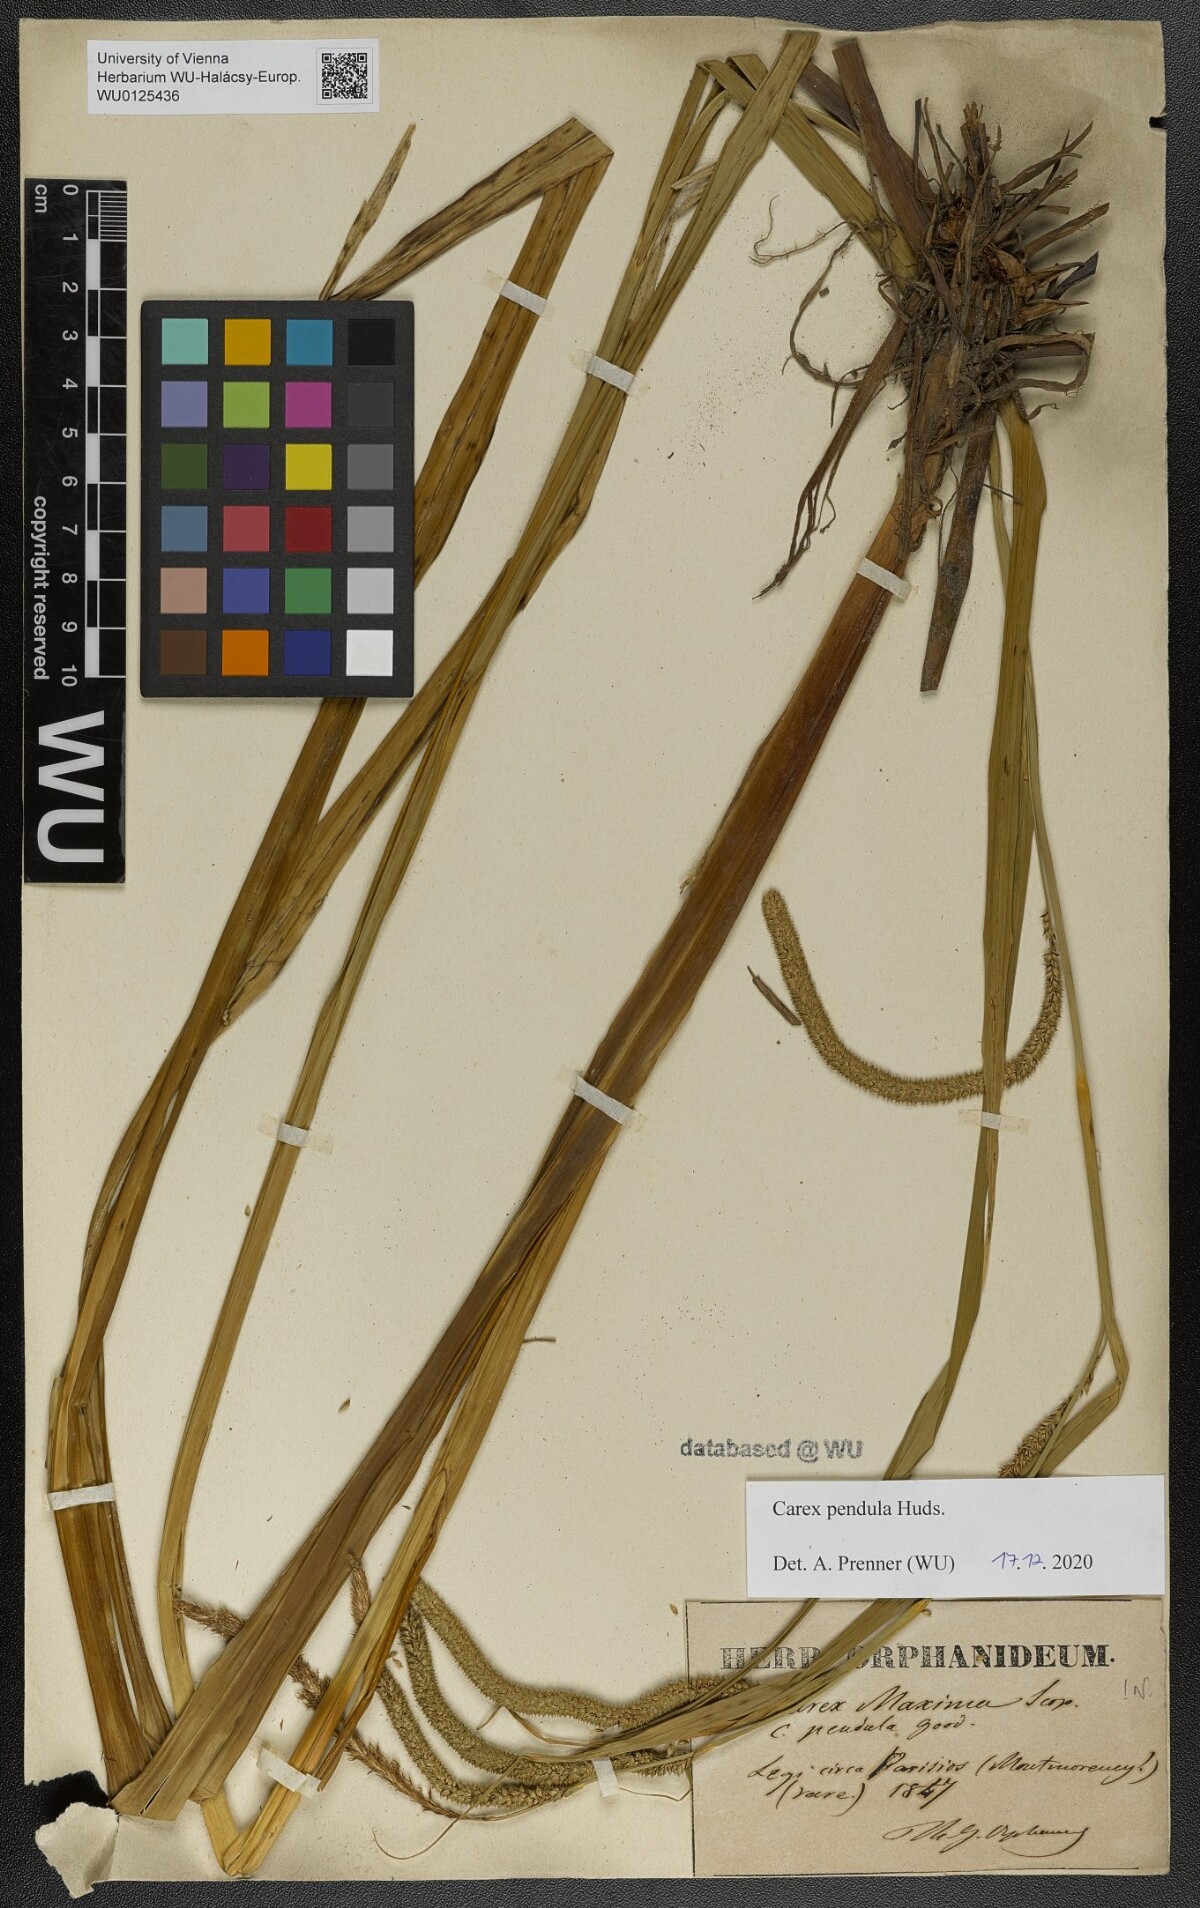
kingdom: Plantae
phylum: Tracheophyta
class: Liliopsida
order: Poales
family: Cyperaceae
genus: Carex
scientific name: Carex pendula
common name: Pendulous sedge
